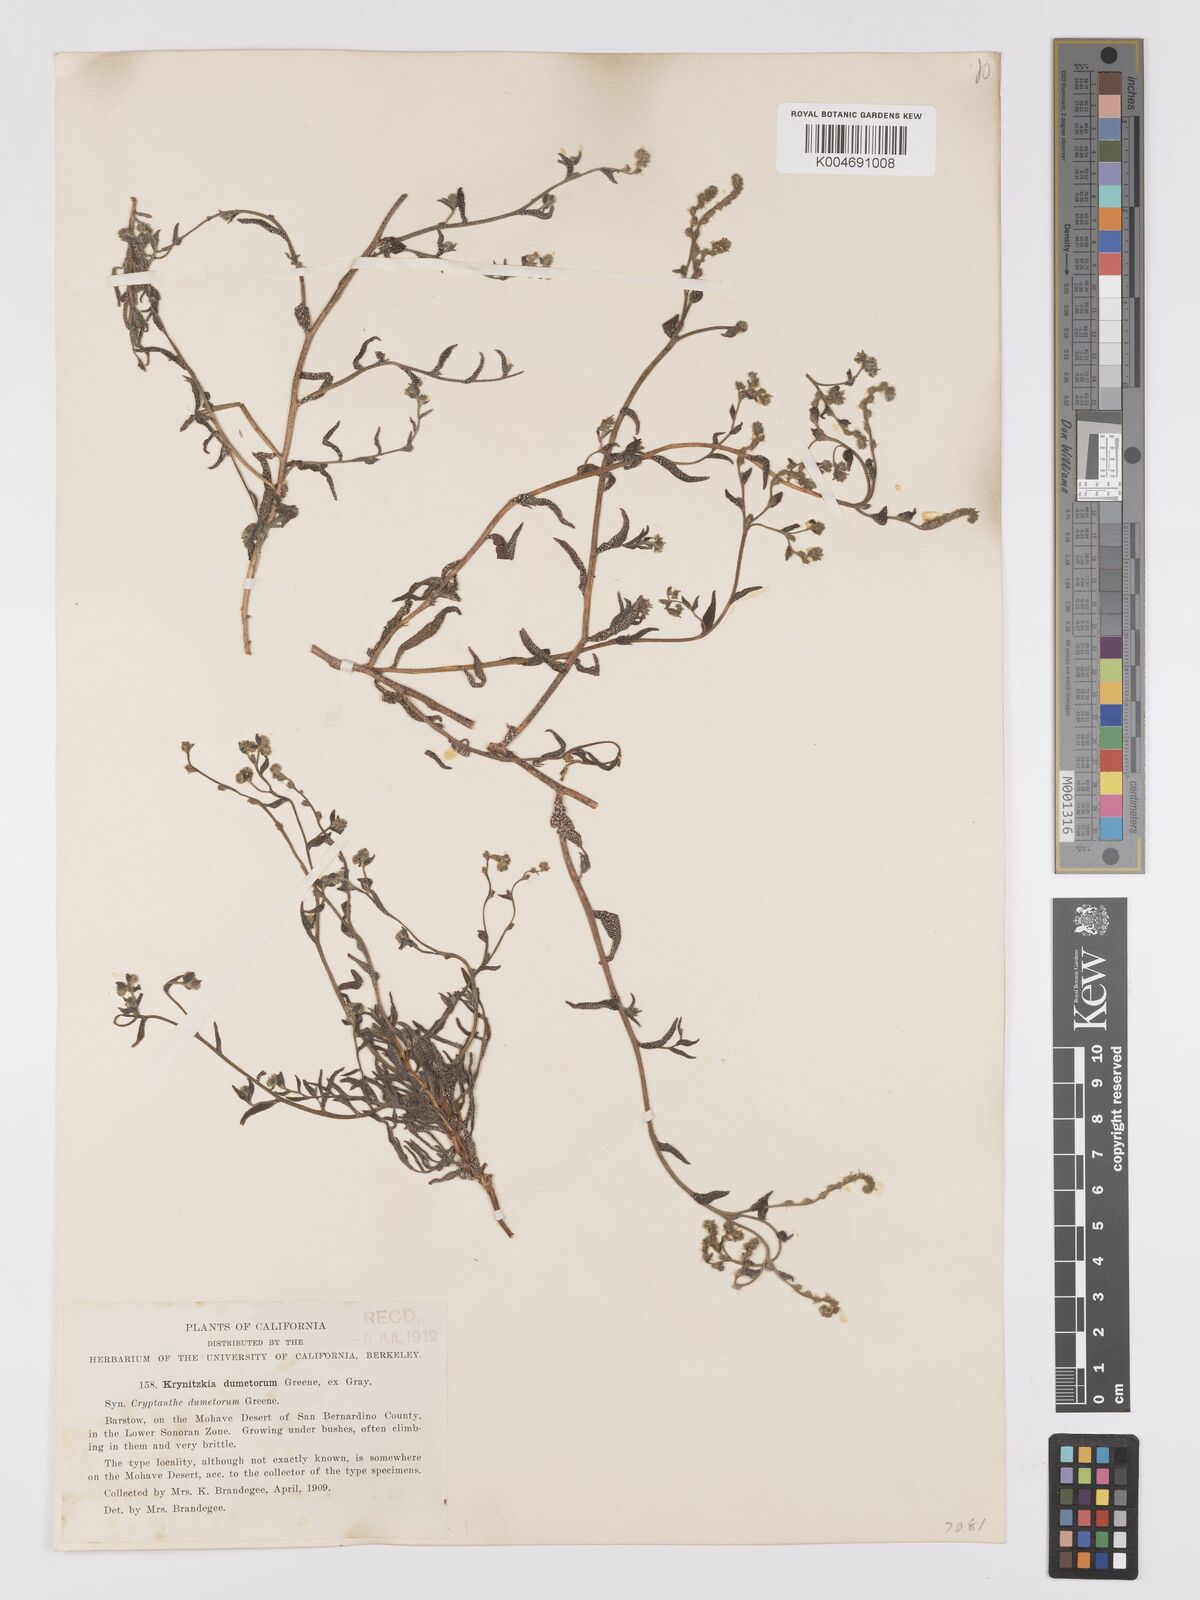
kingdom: Plantae
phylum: Tracheophyta
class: Magnoliopsida
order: Boraginales
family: Boraginaceae
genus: Cryptantha
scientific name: Cryptantha dumetorum
